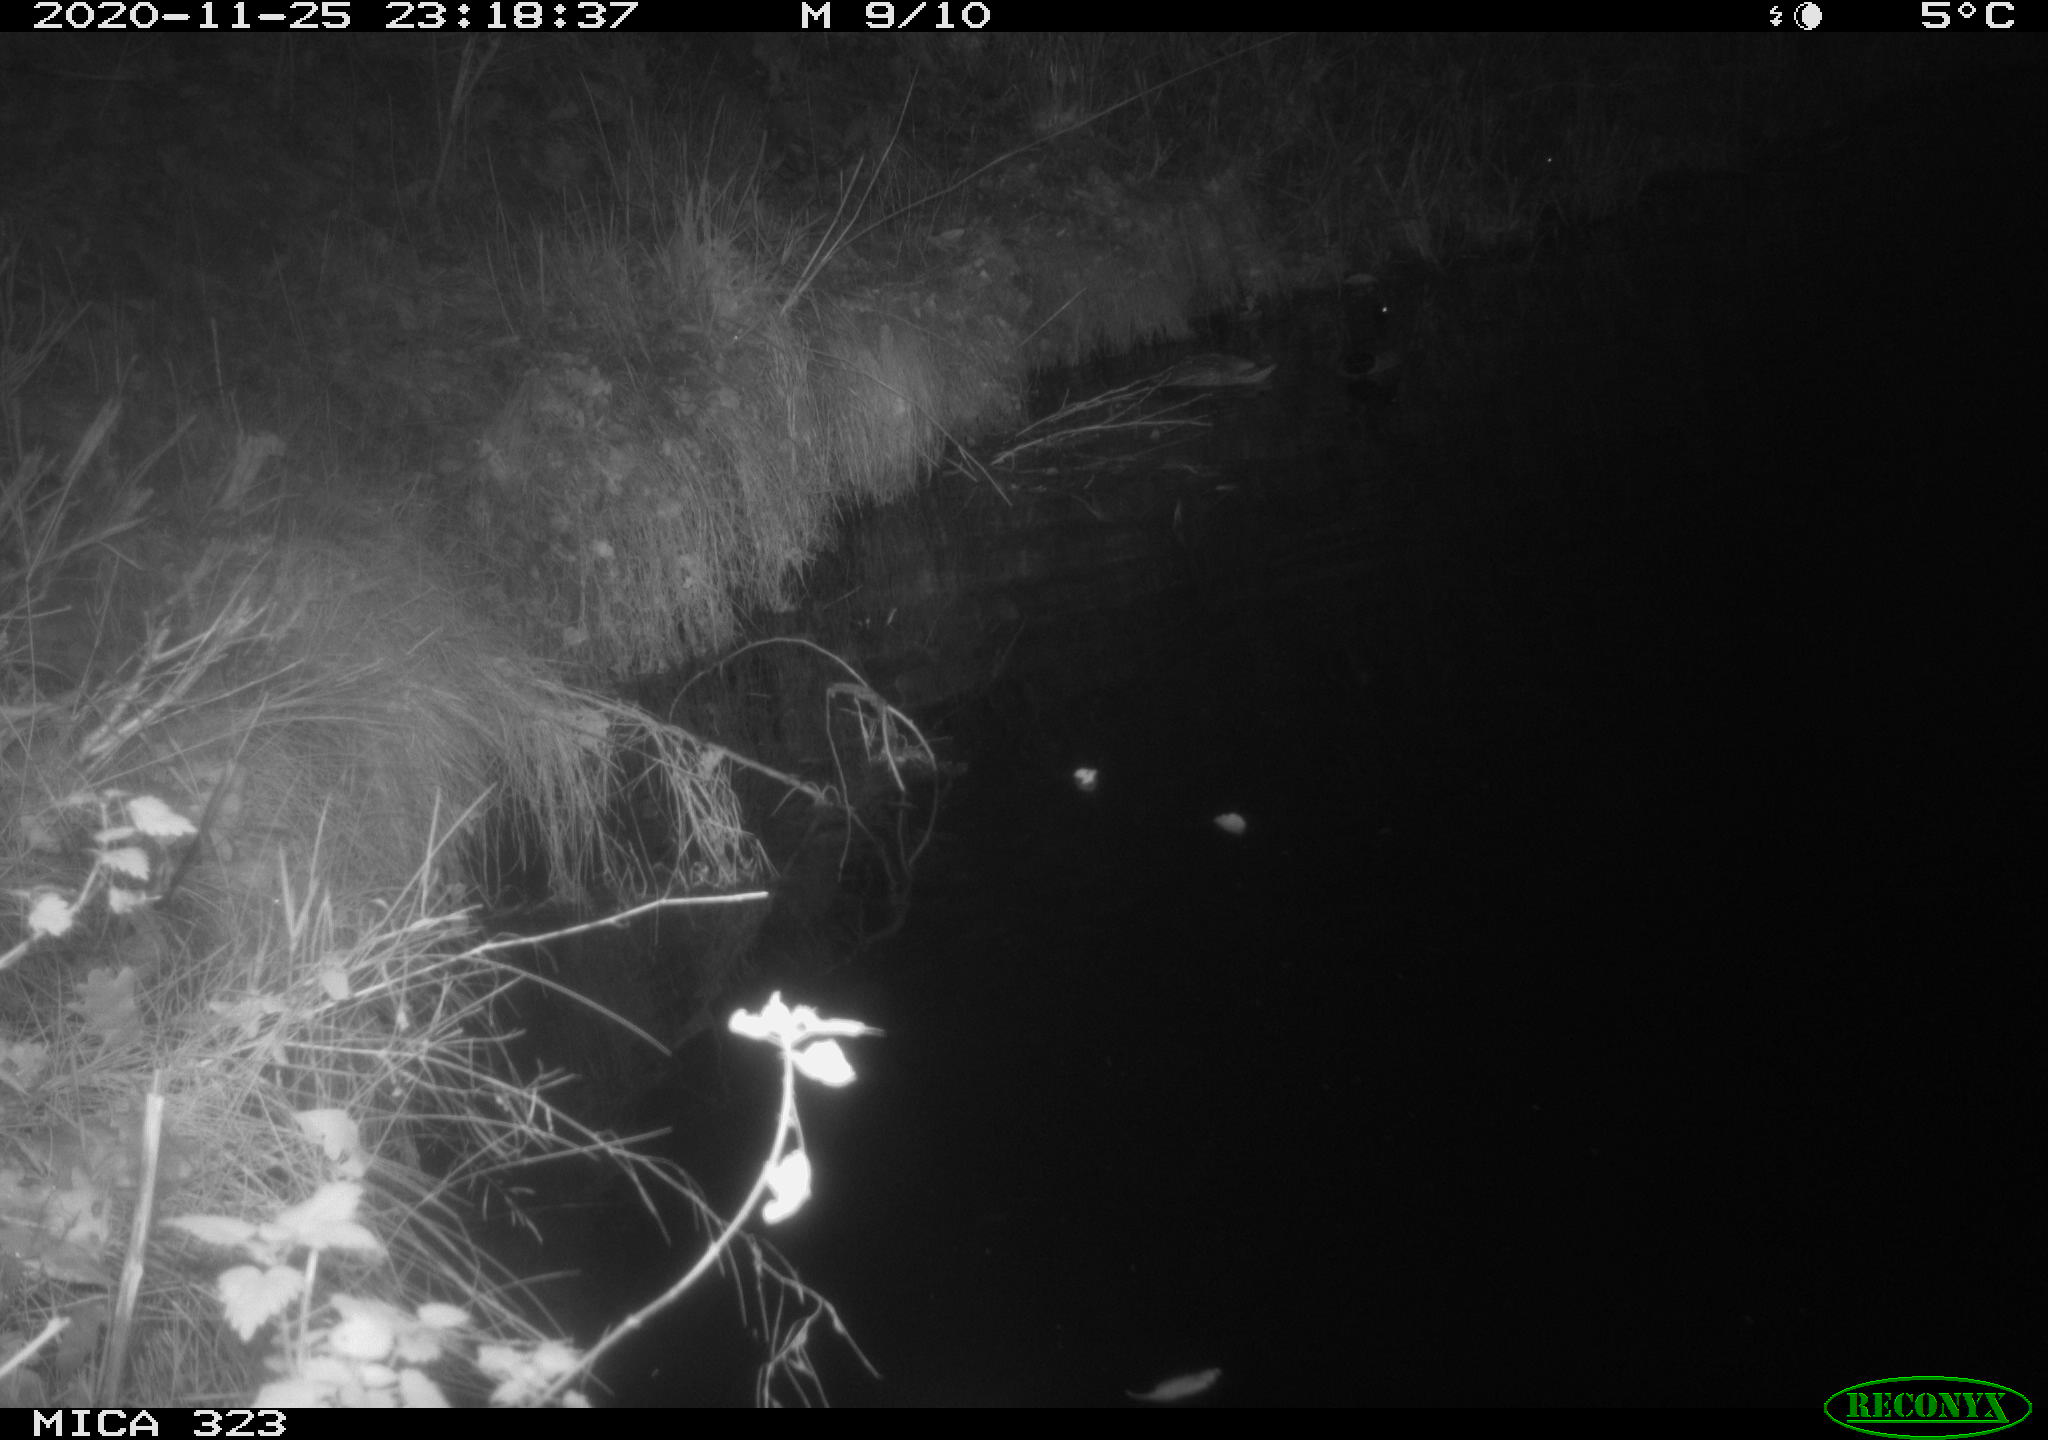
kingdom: Animalia
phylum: Chordata
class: Mammalia
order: Rodentia
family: Cricetidae
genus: Ondatra
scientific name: Ondatra zibethicus
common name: Muskrat
